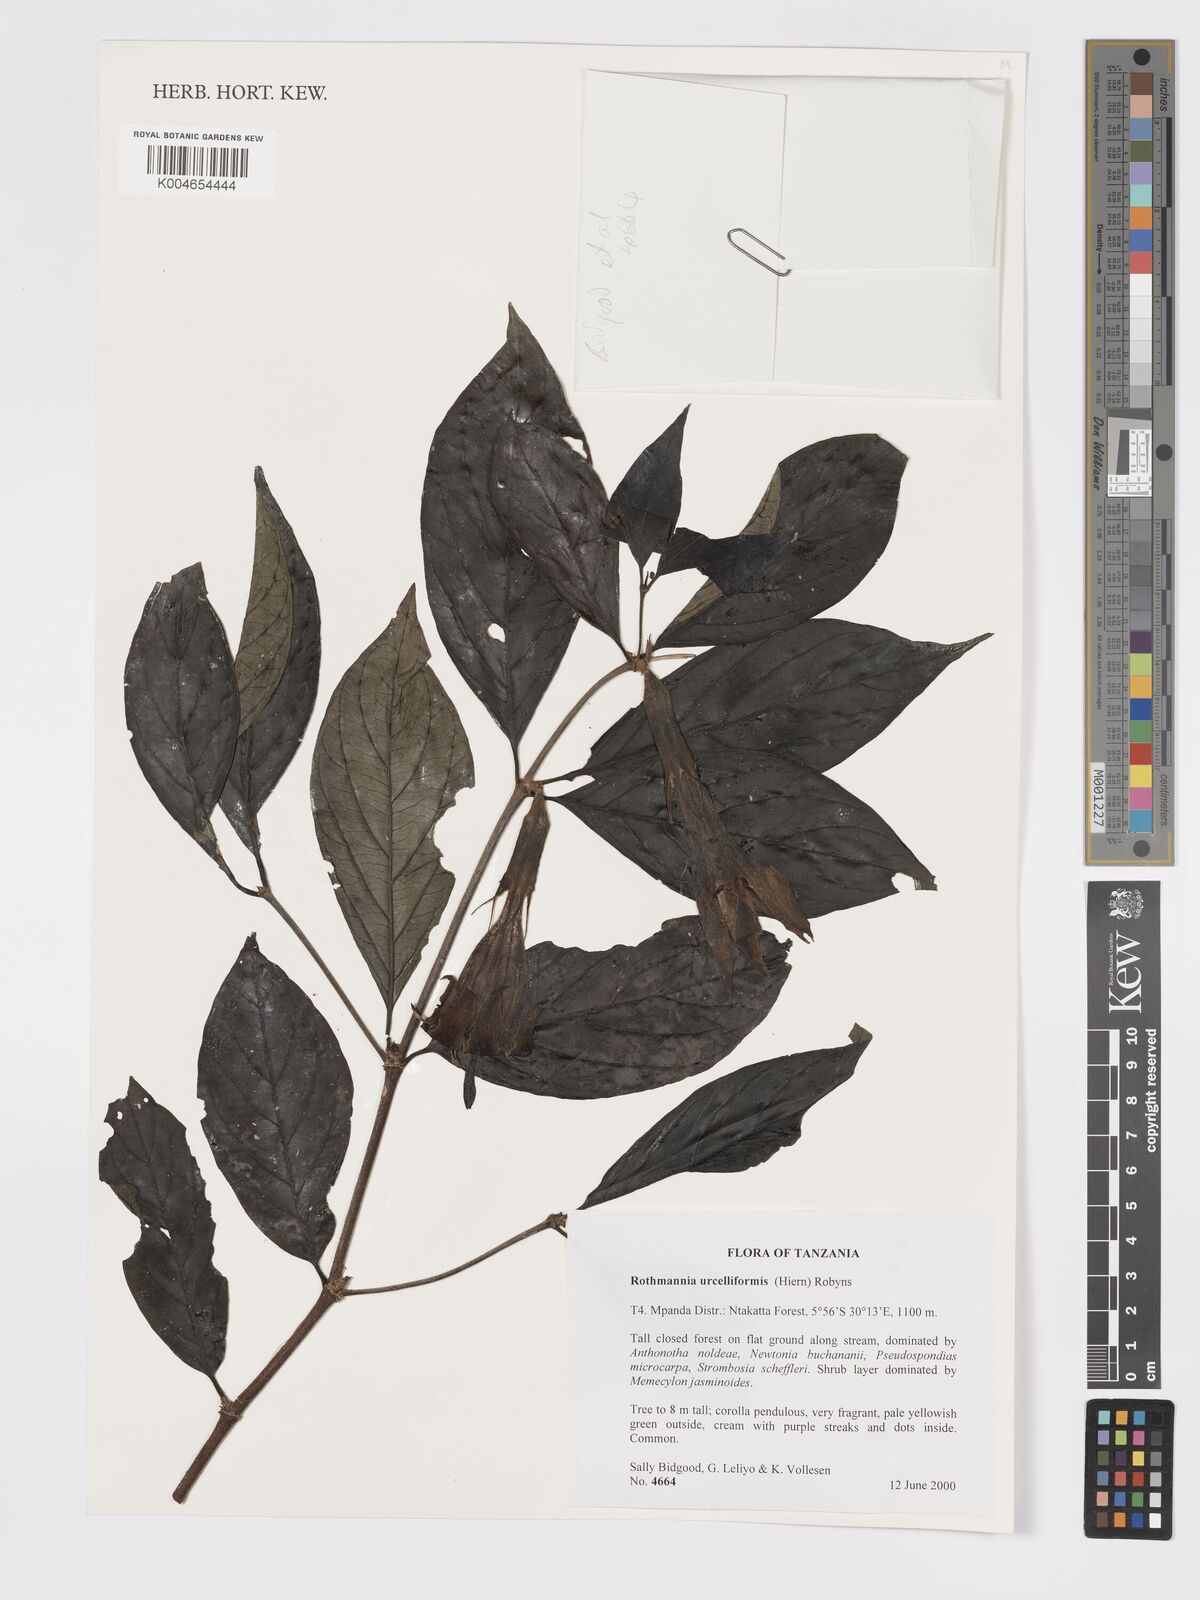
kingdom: Plantae
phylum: Tracheophyta
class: Magnoliopsida
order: Gentianales
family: Rubiaceae
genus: Rothmannia
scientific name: Rothmannia urcelliformis
